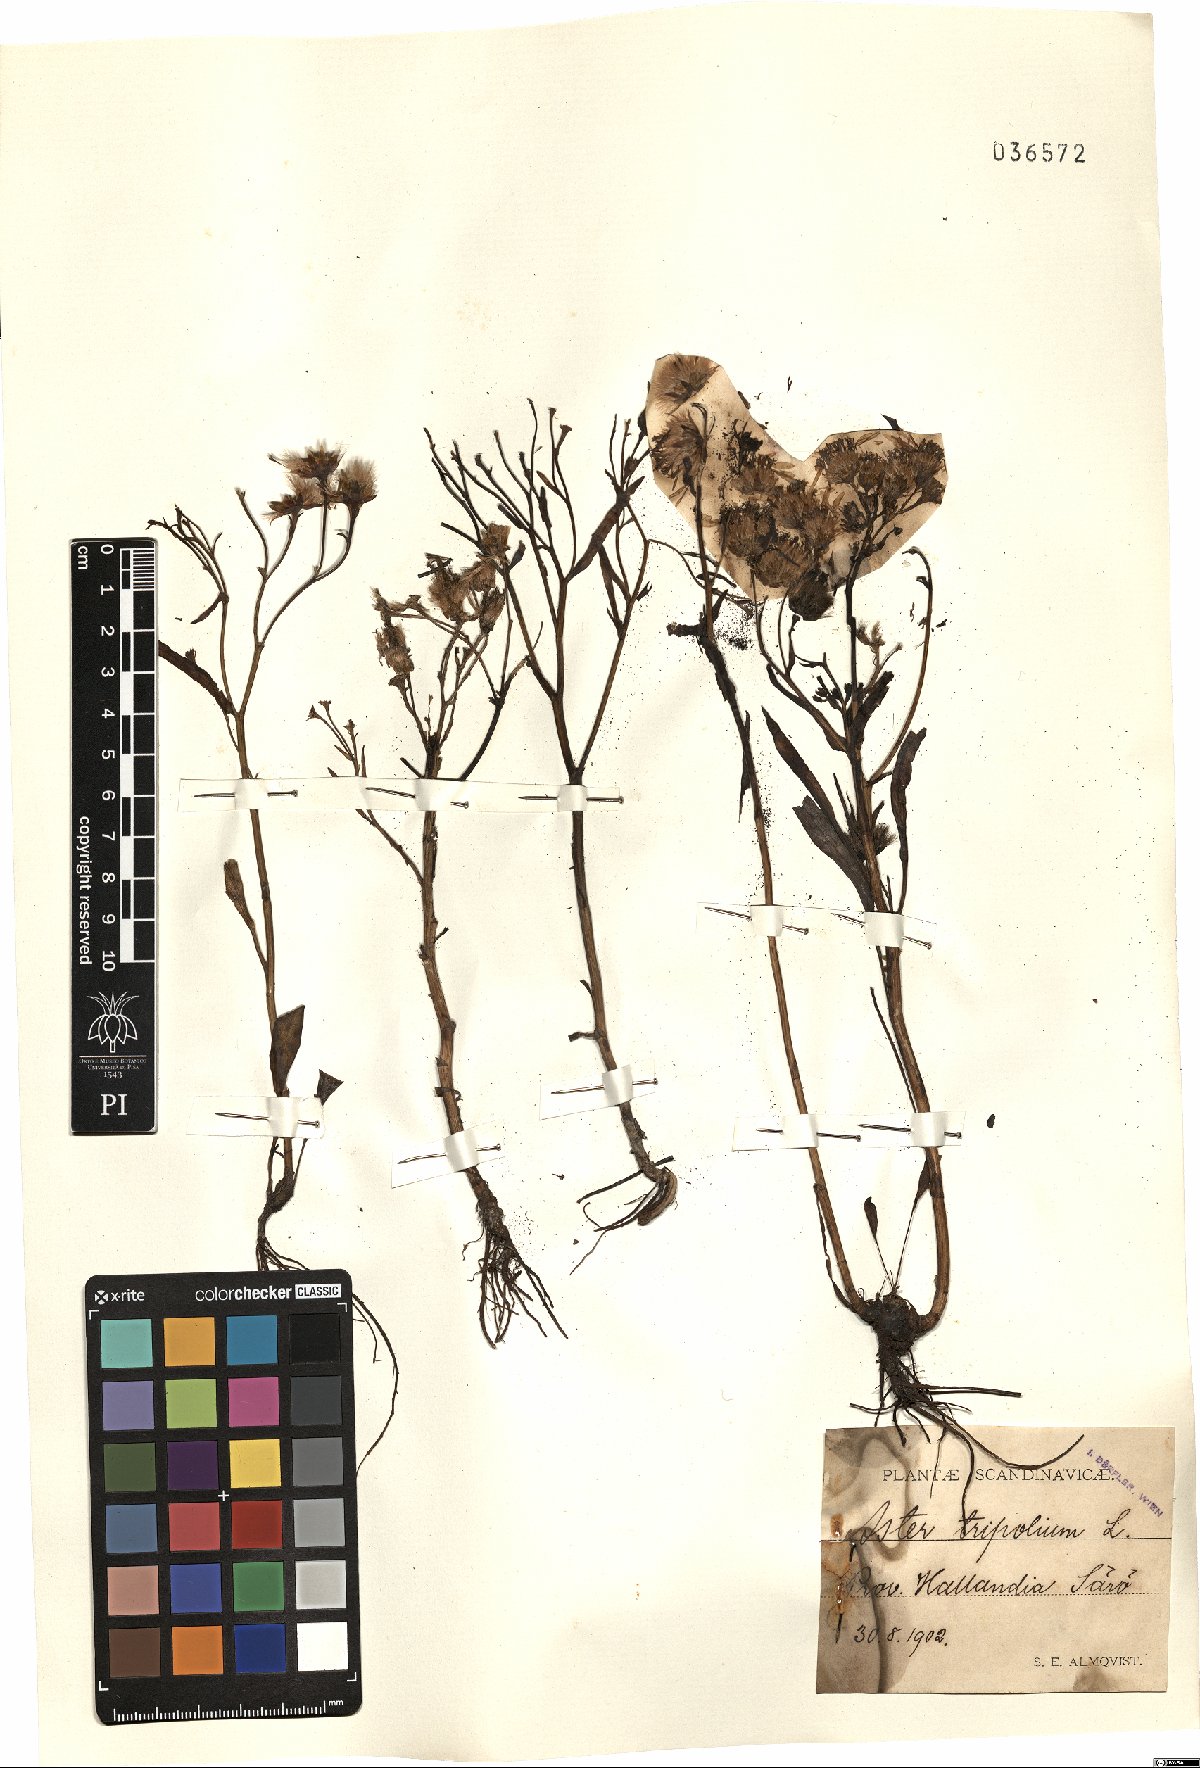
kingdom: Plantae
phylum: Tracheophyta
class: Magnoliopsida
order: Asterales
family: Asteraceae
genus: Tripolium
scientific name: Tripolium pannonicum
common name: Sea aster
